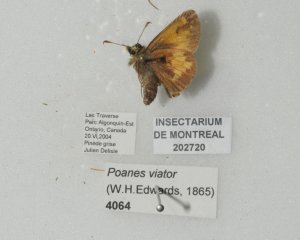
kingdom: Animalia
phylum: Arthropoda
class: Insecta
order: Lepidoptera
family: Hesperiidae
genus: Lon
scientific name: Lon hobomok
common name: Hobomok Skipper
